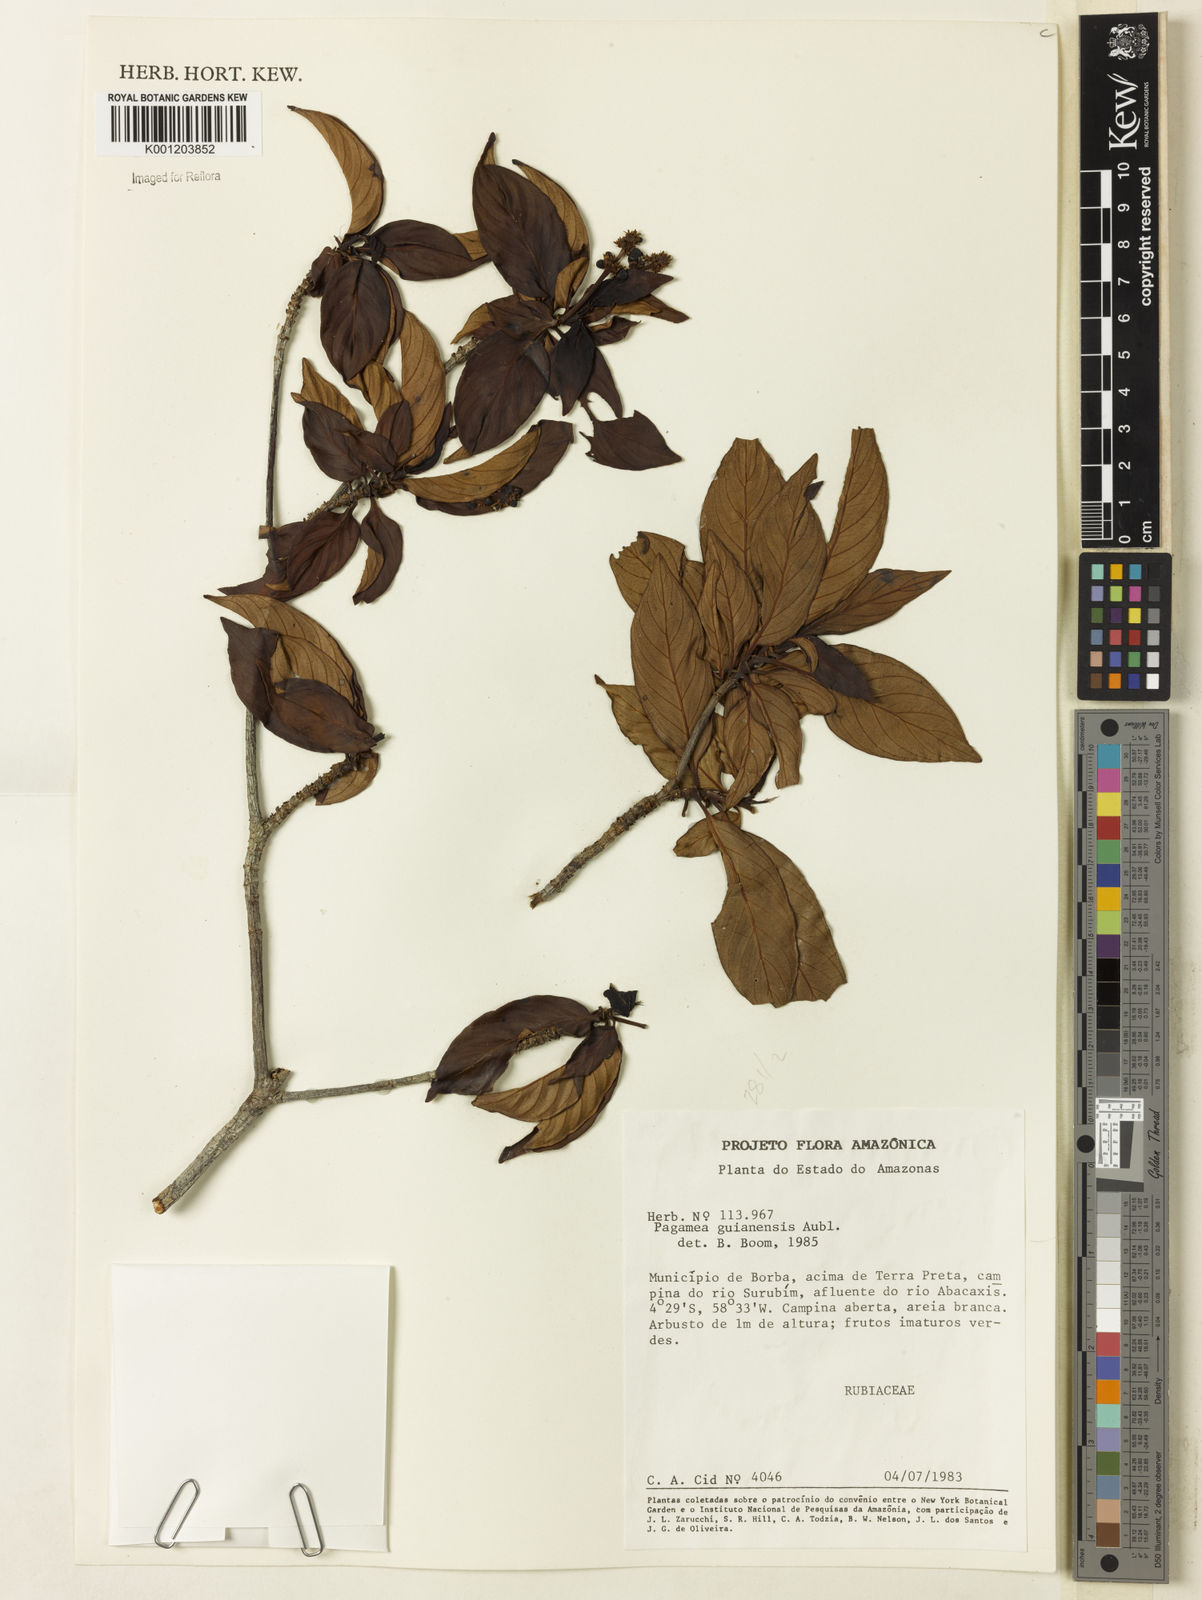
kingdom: Plantae
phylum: Tracheophyta
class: Magnoliopsida
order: Gentianales
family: Rubiaceae
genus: Pagamea
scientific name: Pagamea guianensis
